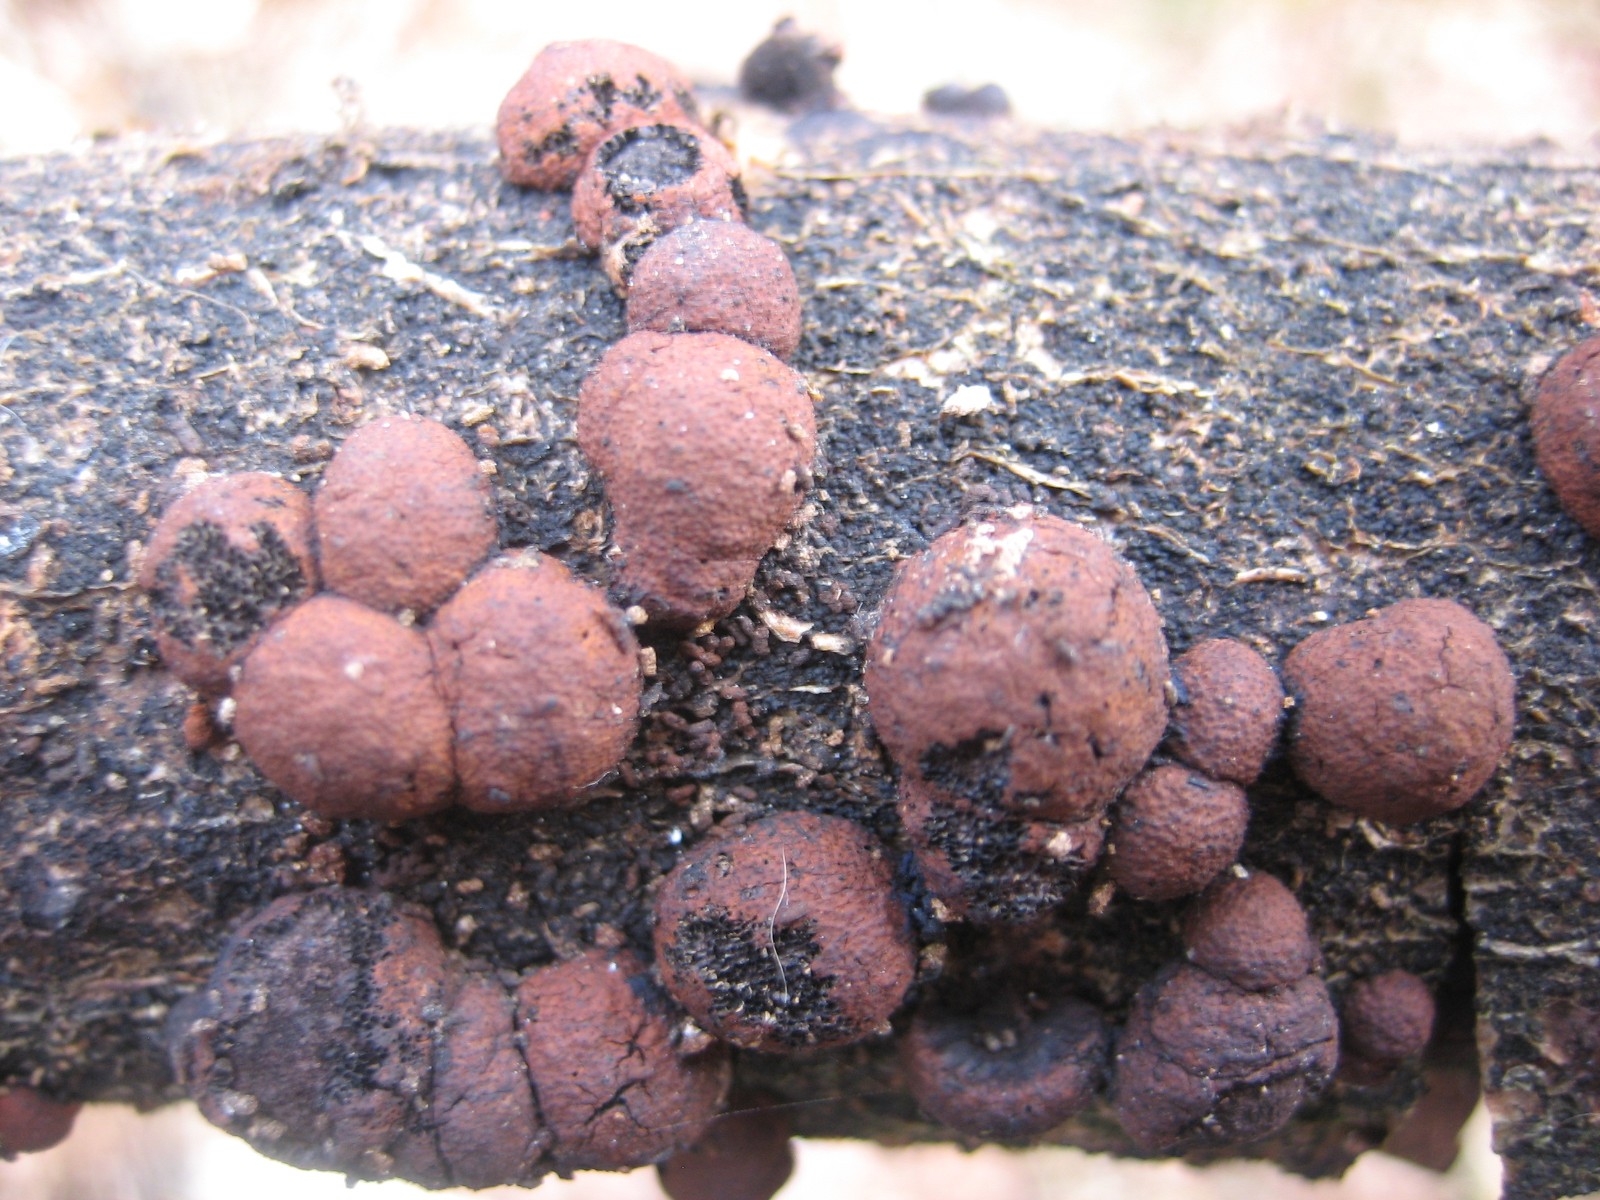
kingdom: Fungi
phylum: Ascomycota
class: Sordariomycetes
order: Xylariales
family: Hypoxylaceae
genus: Hypoxylon
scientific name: Hypoxylon howeanum
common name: halvkugleformet kulbær
